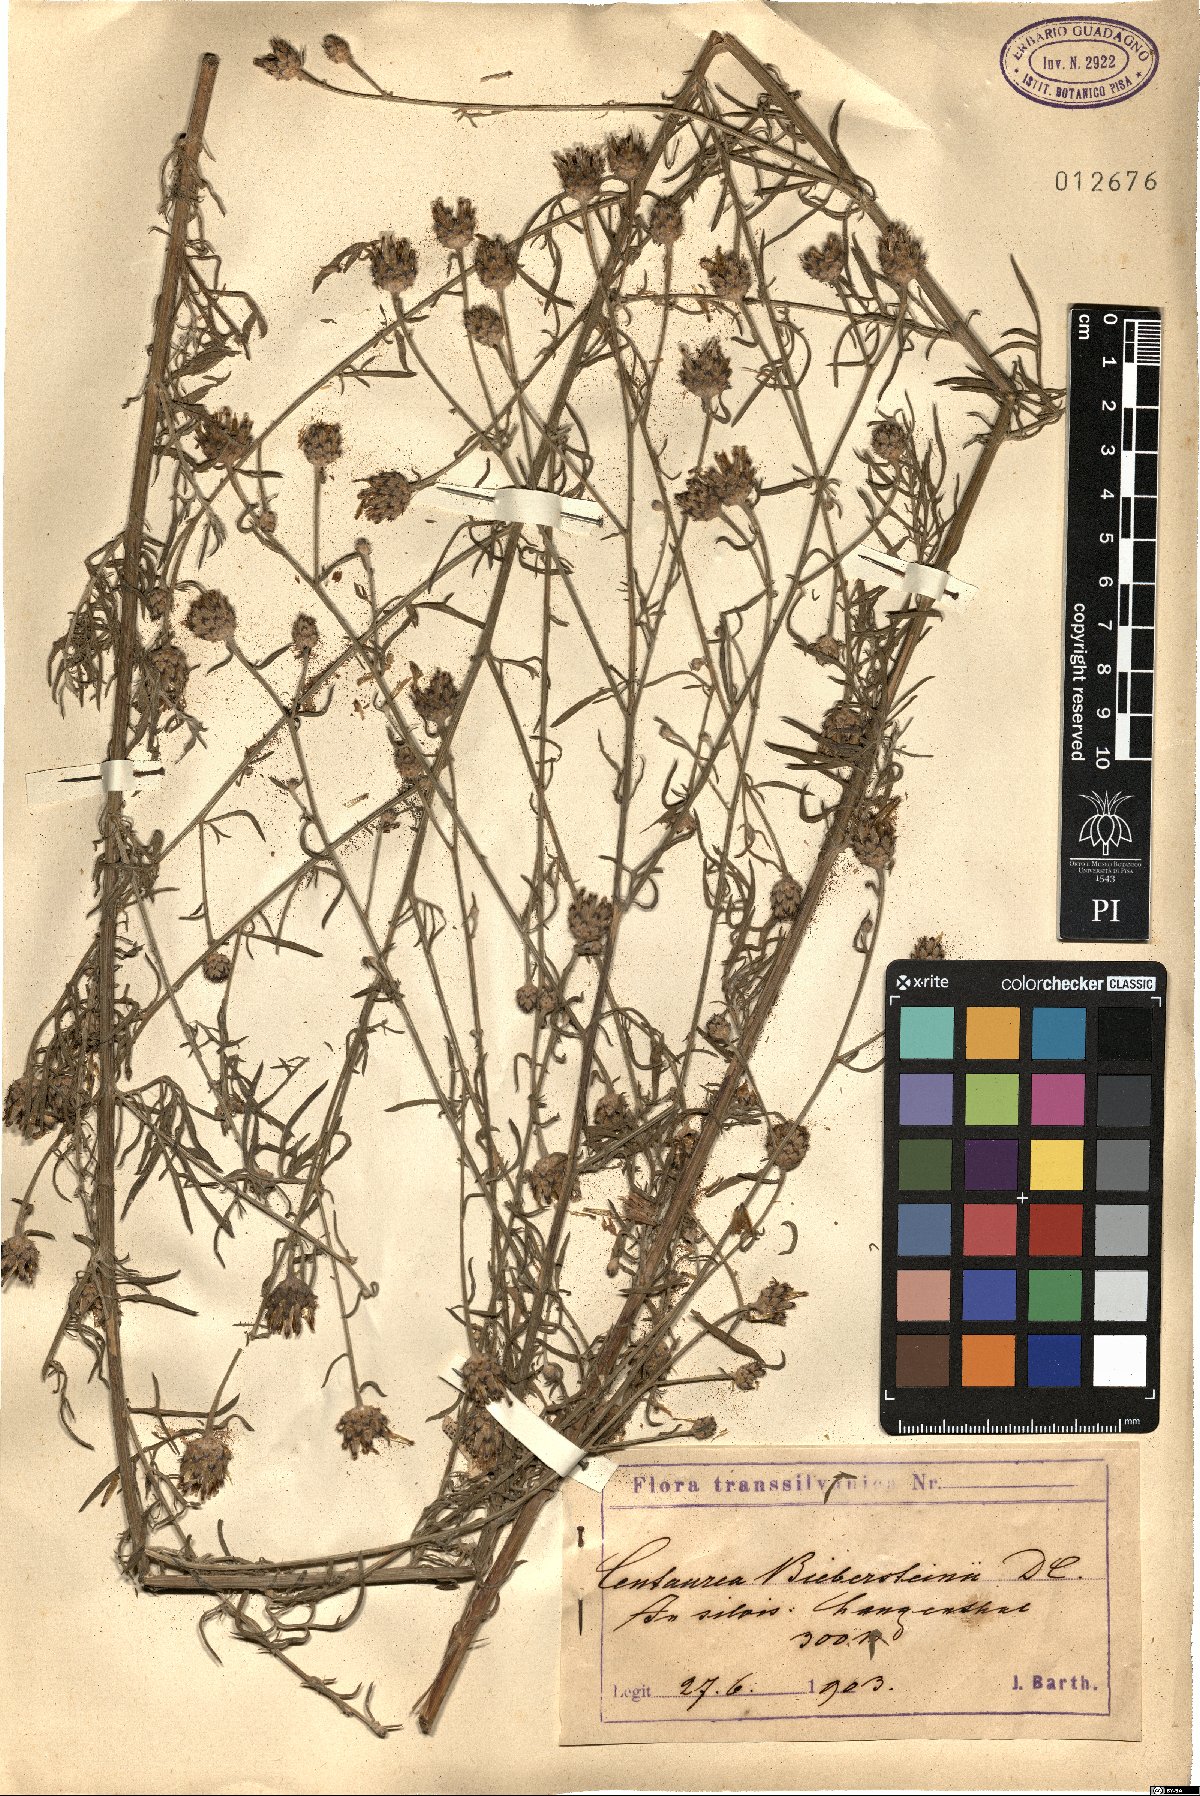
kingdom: Plantae
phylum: Tracheophyta
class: Magnoliopsida
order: Asterales
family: Asteraceae
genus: Centaurea
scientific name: Centaurea stoebe
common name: Spotted knapweed
